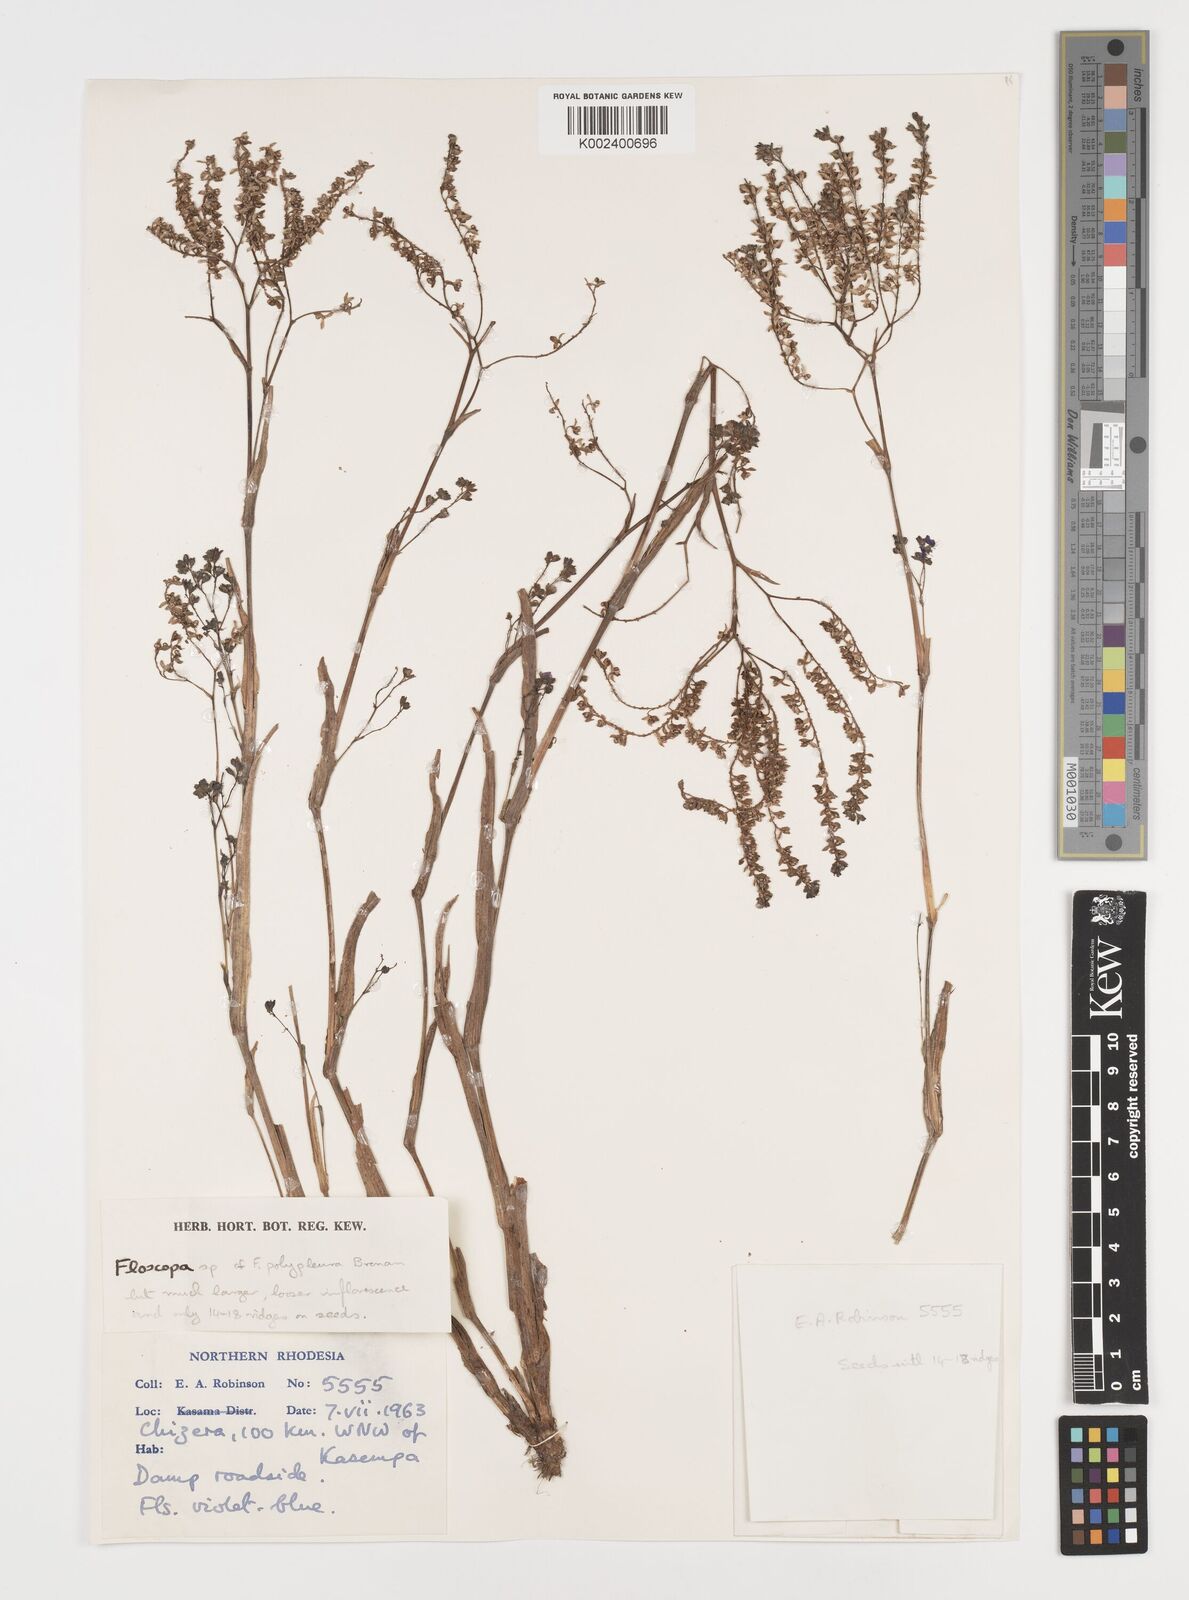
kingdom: Plantae
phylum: Tracheophyta
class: Liliopsida
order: Commelinales
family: Commelinaceae
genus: Floscopa
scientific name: Floscopa
